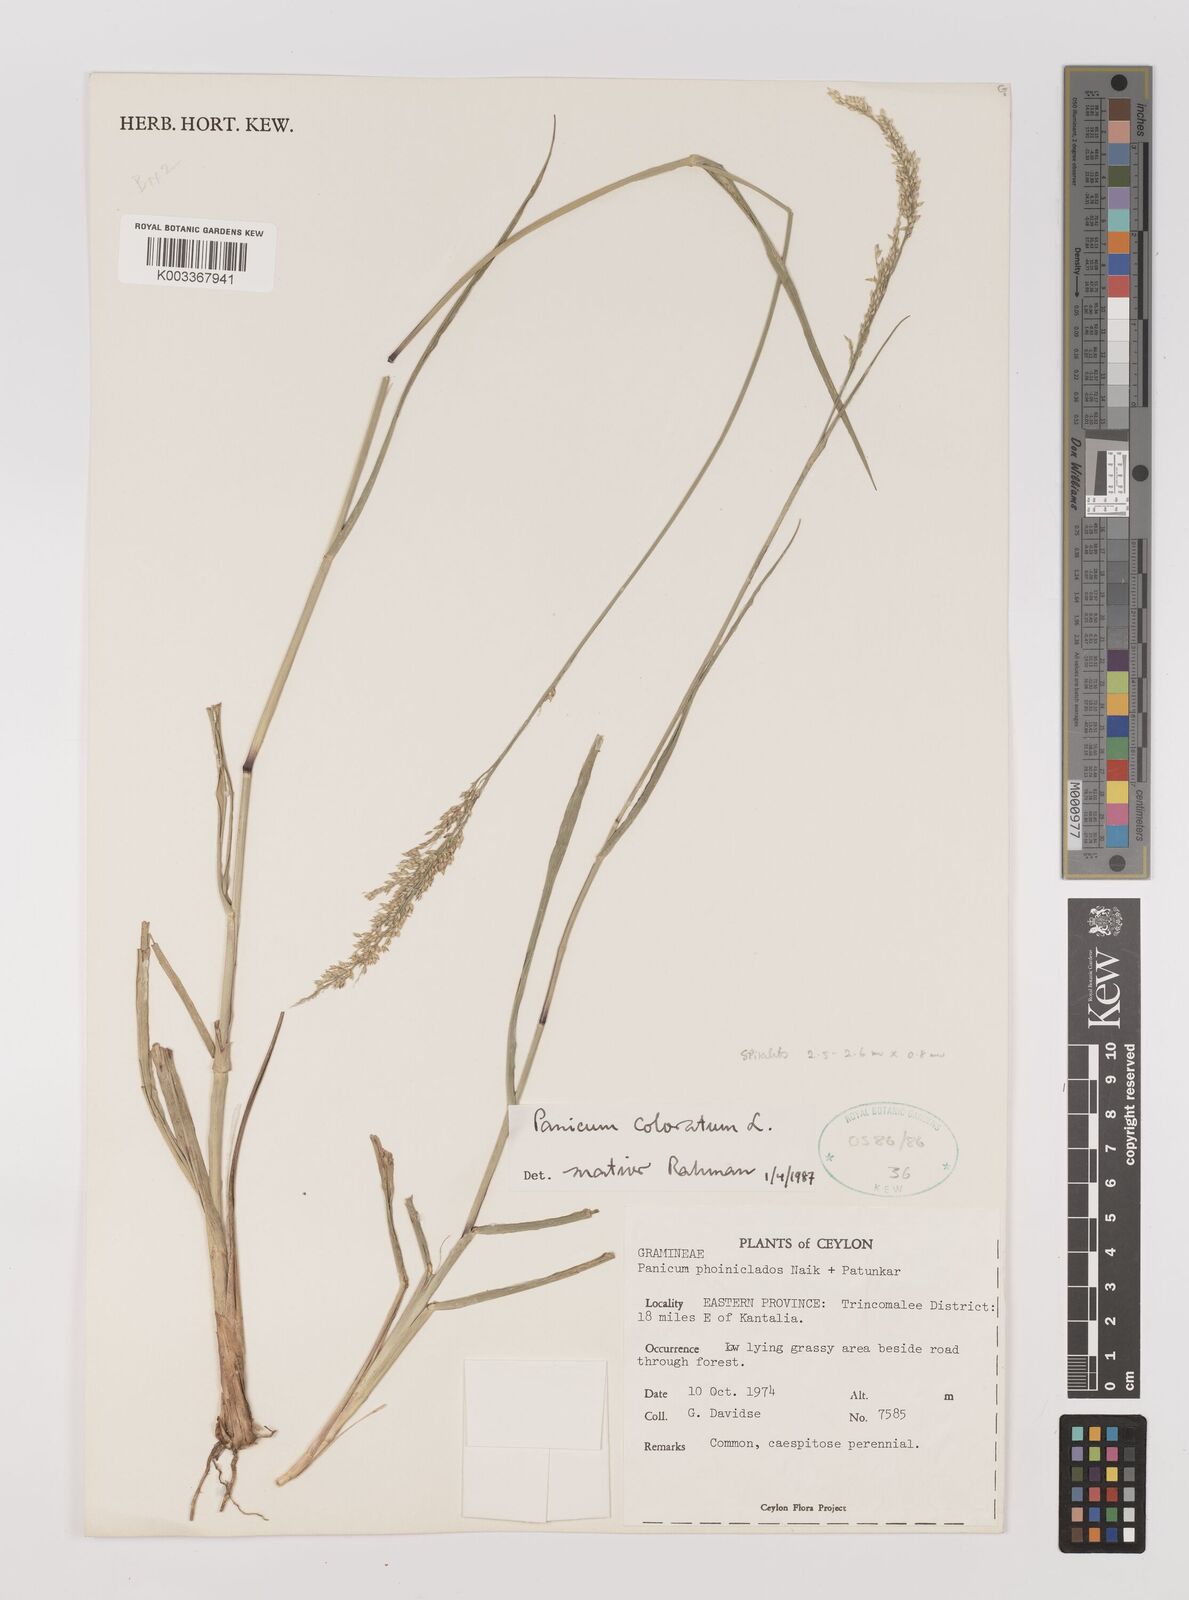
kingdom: Plantae
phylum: Tracheophyta
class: Liliopsida
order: Poales
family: Poaceae
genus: Panicum
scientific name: Panicum phoiniclados
